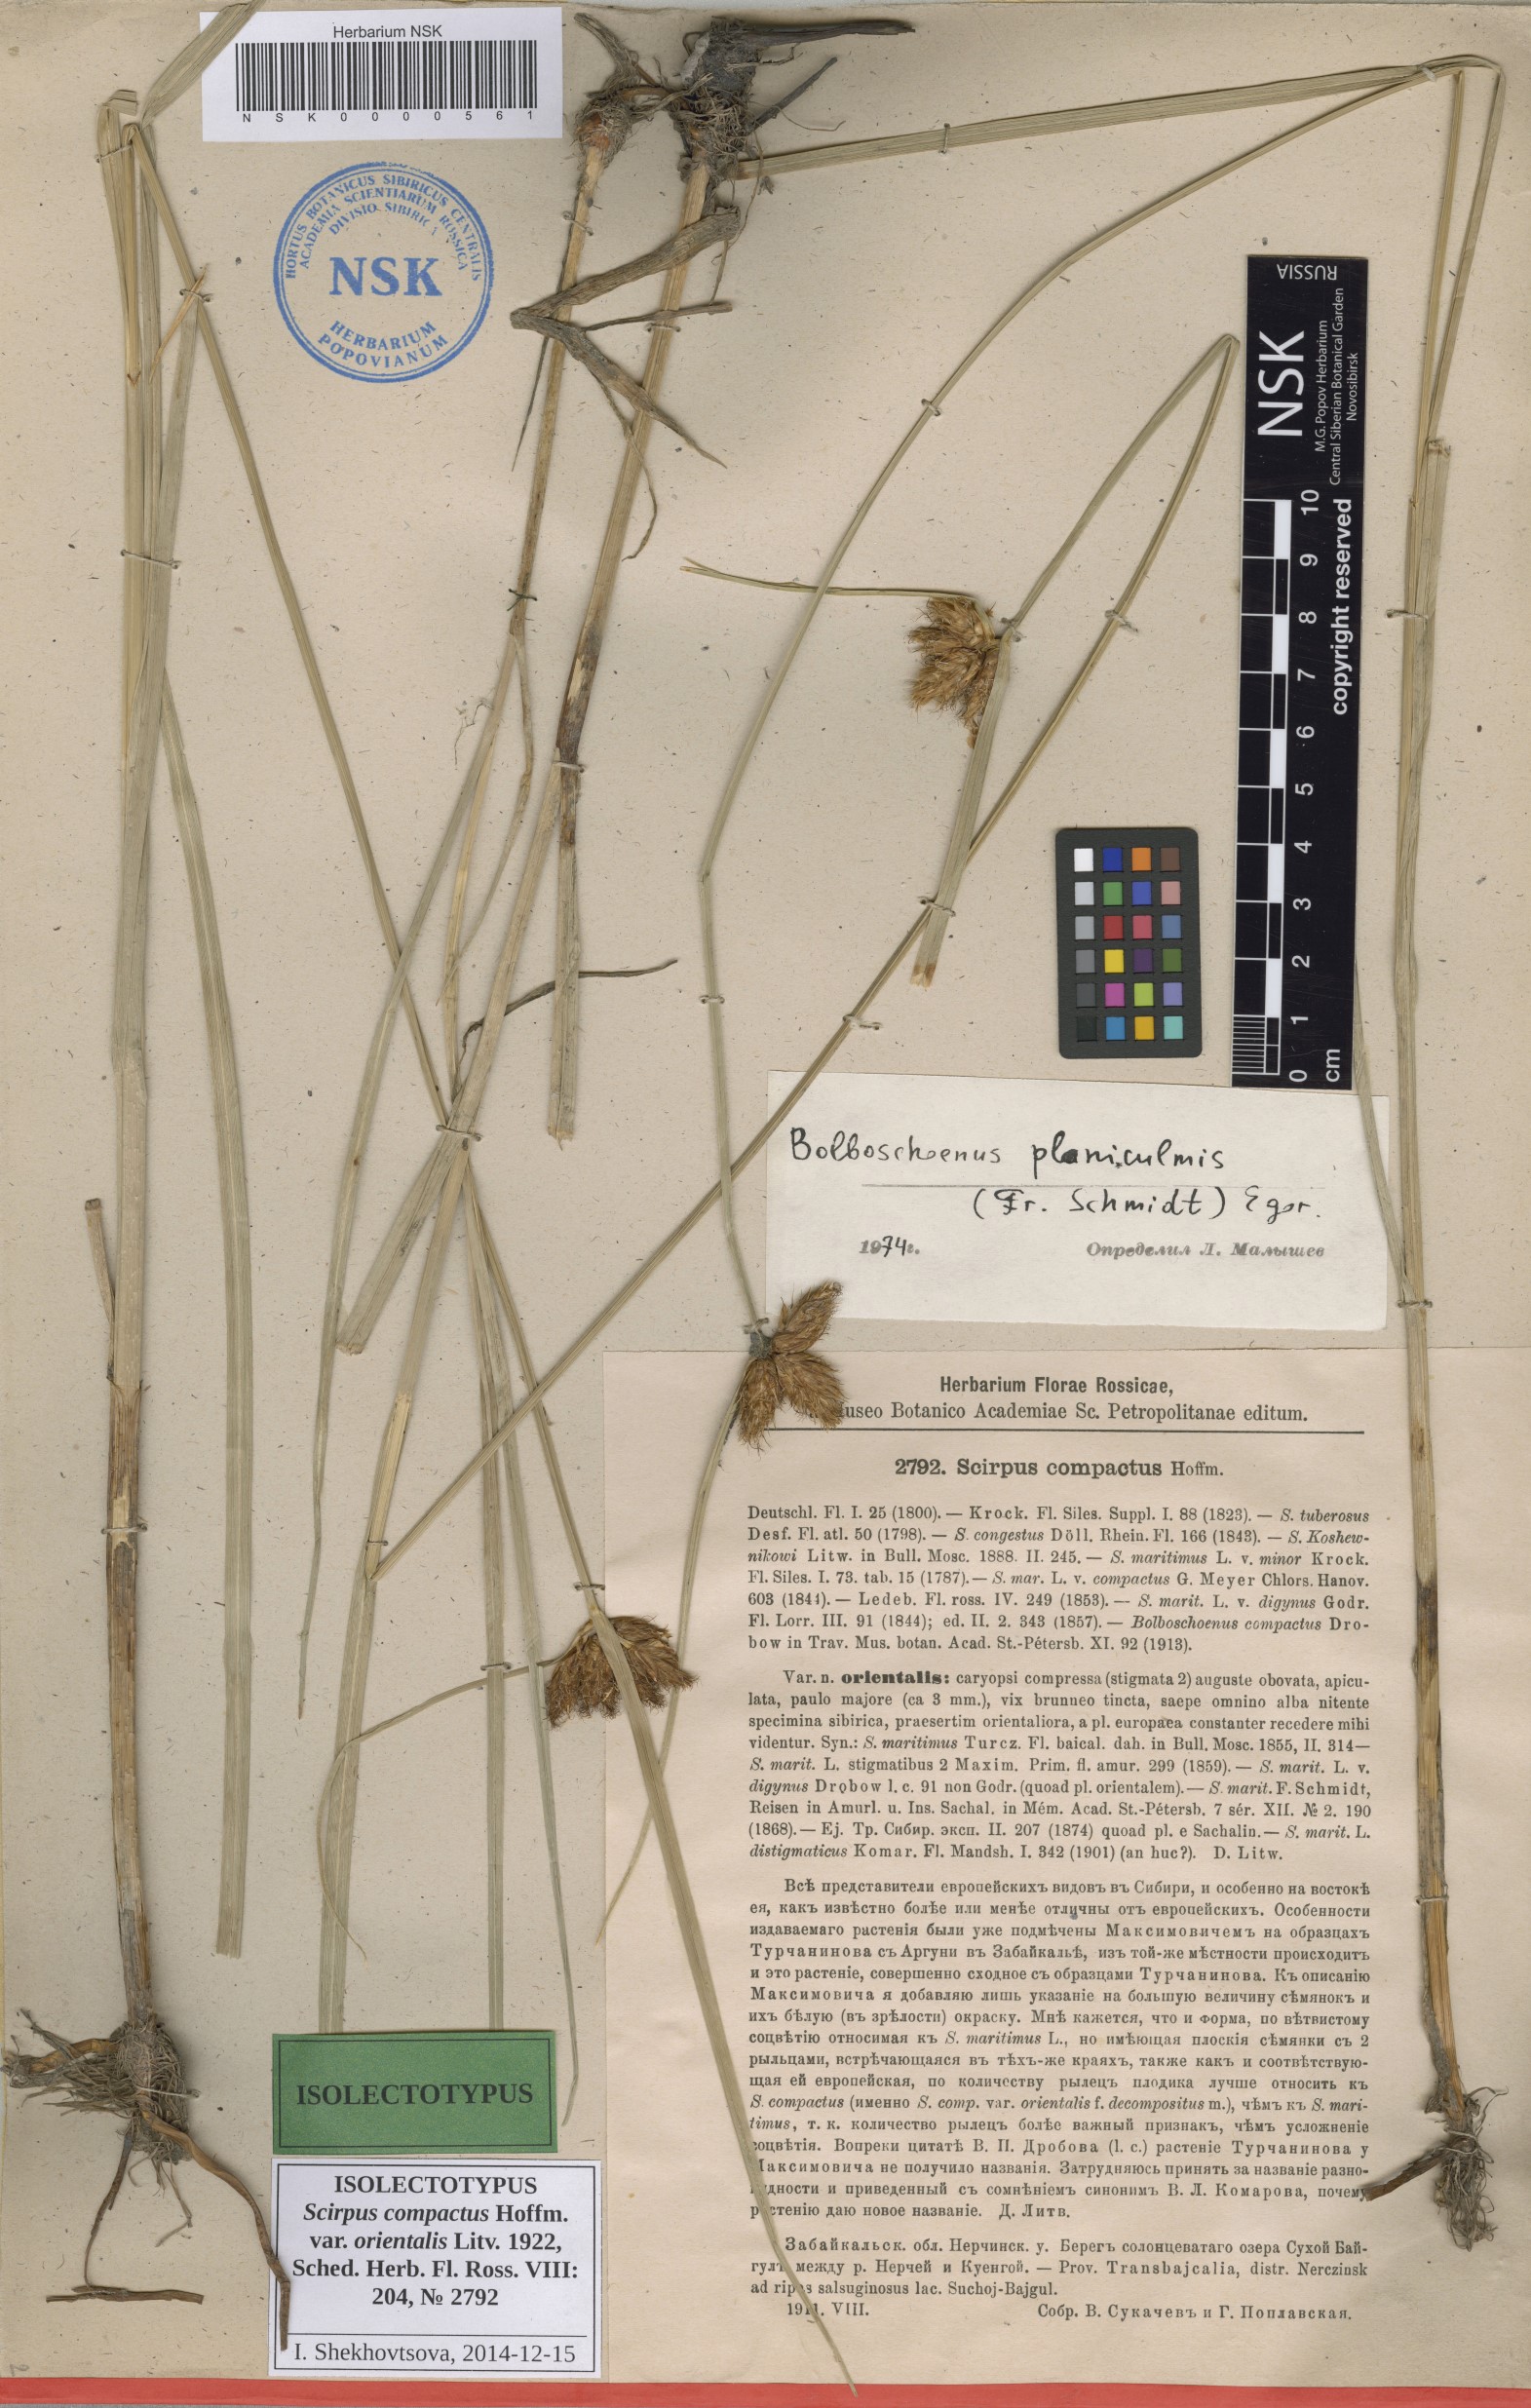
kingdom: Plantae
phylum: Tracheophyta
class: Liliopsida
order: Poales
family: Cyperaceae
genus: Bolboschoenus
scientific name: Bolboschoenus schmidii
